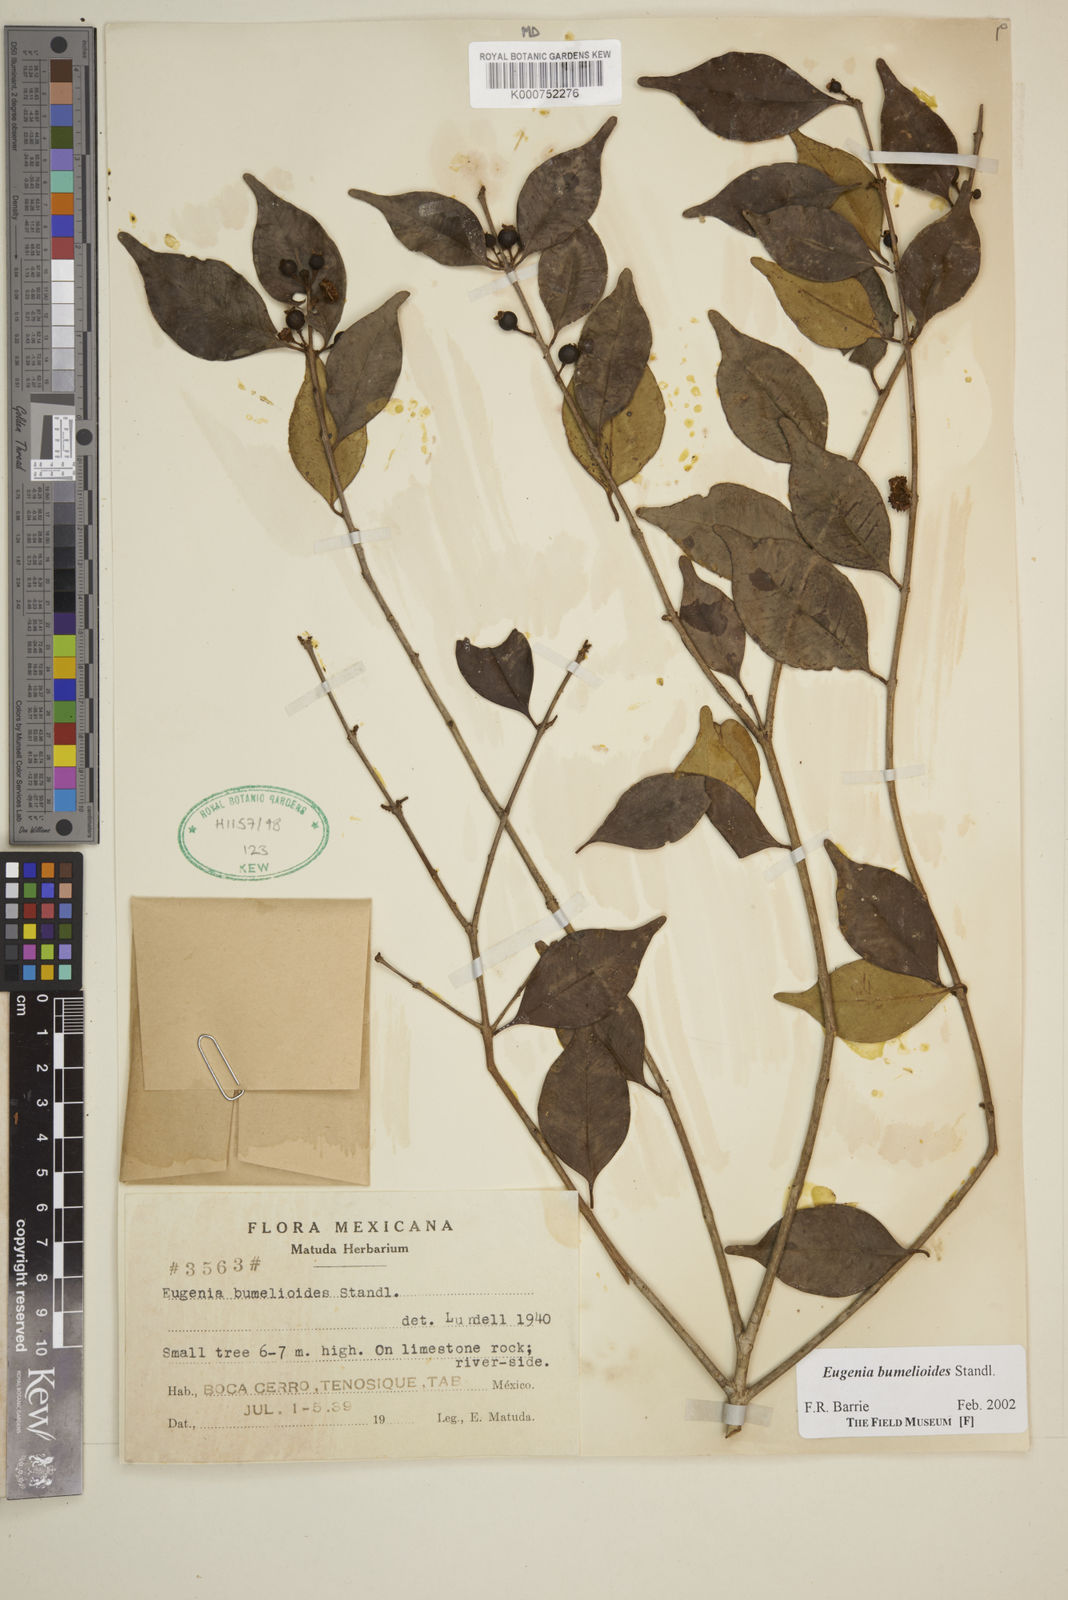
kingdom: Plantae
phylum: Tracheophyta
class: Magnoliopsida
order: Myrtales
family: Myrtaceae
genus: Eugenia
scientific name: Eugenia bumelioides
